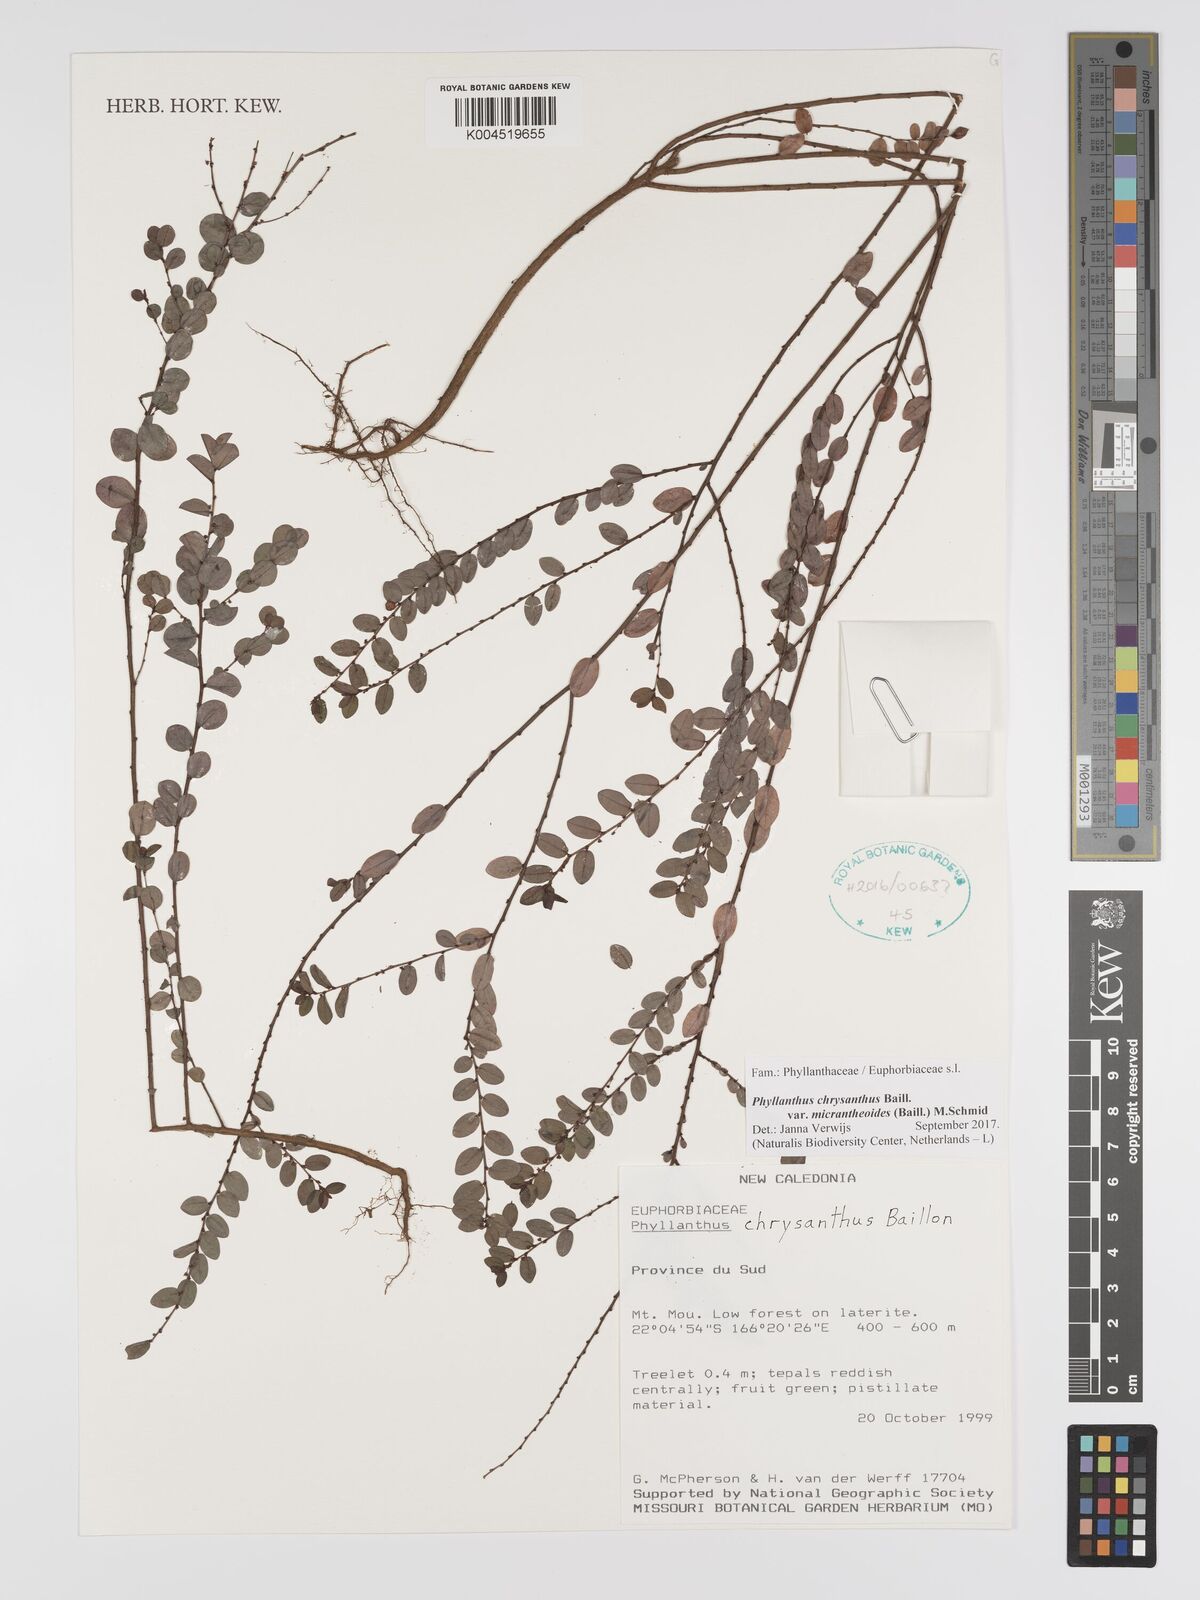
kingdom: Plantae
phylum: Tracheophyta
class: Magnoliopsida
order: Malpighiales
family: Phyllanthaceae
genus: Phyllanthus
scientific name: Phyllanthus chrysanthus
